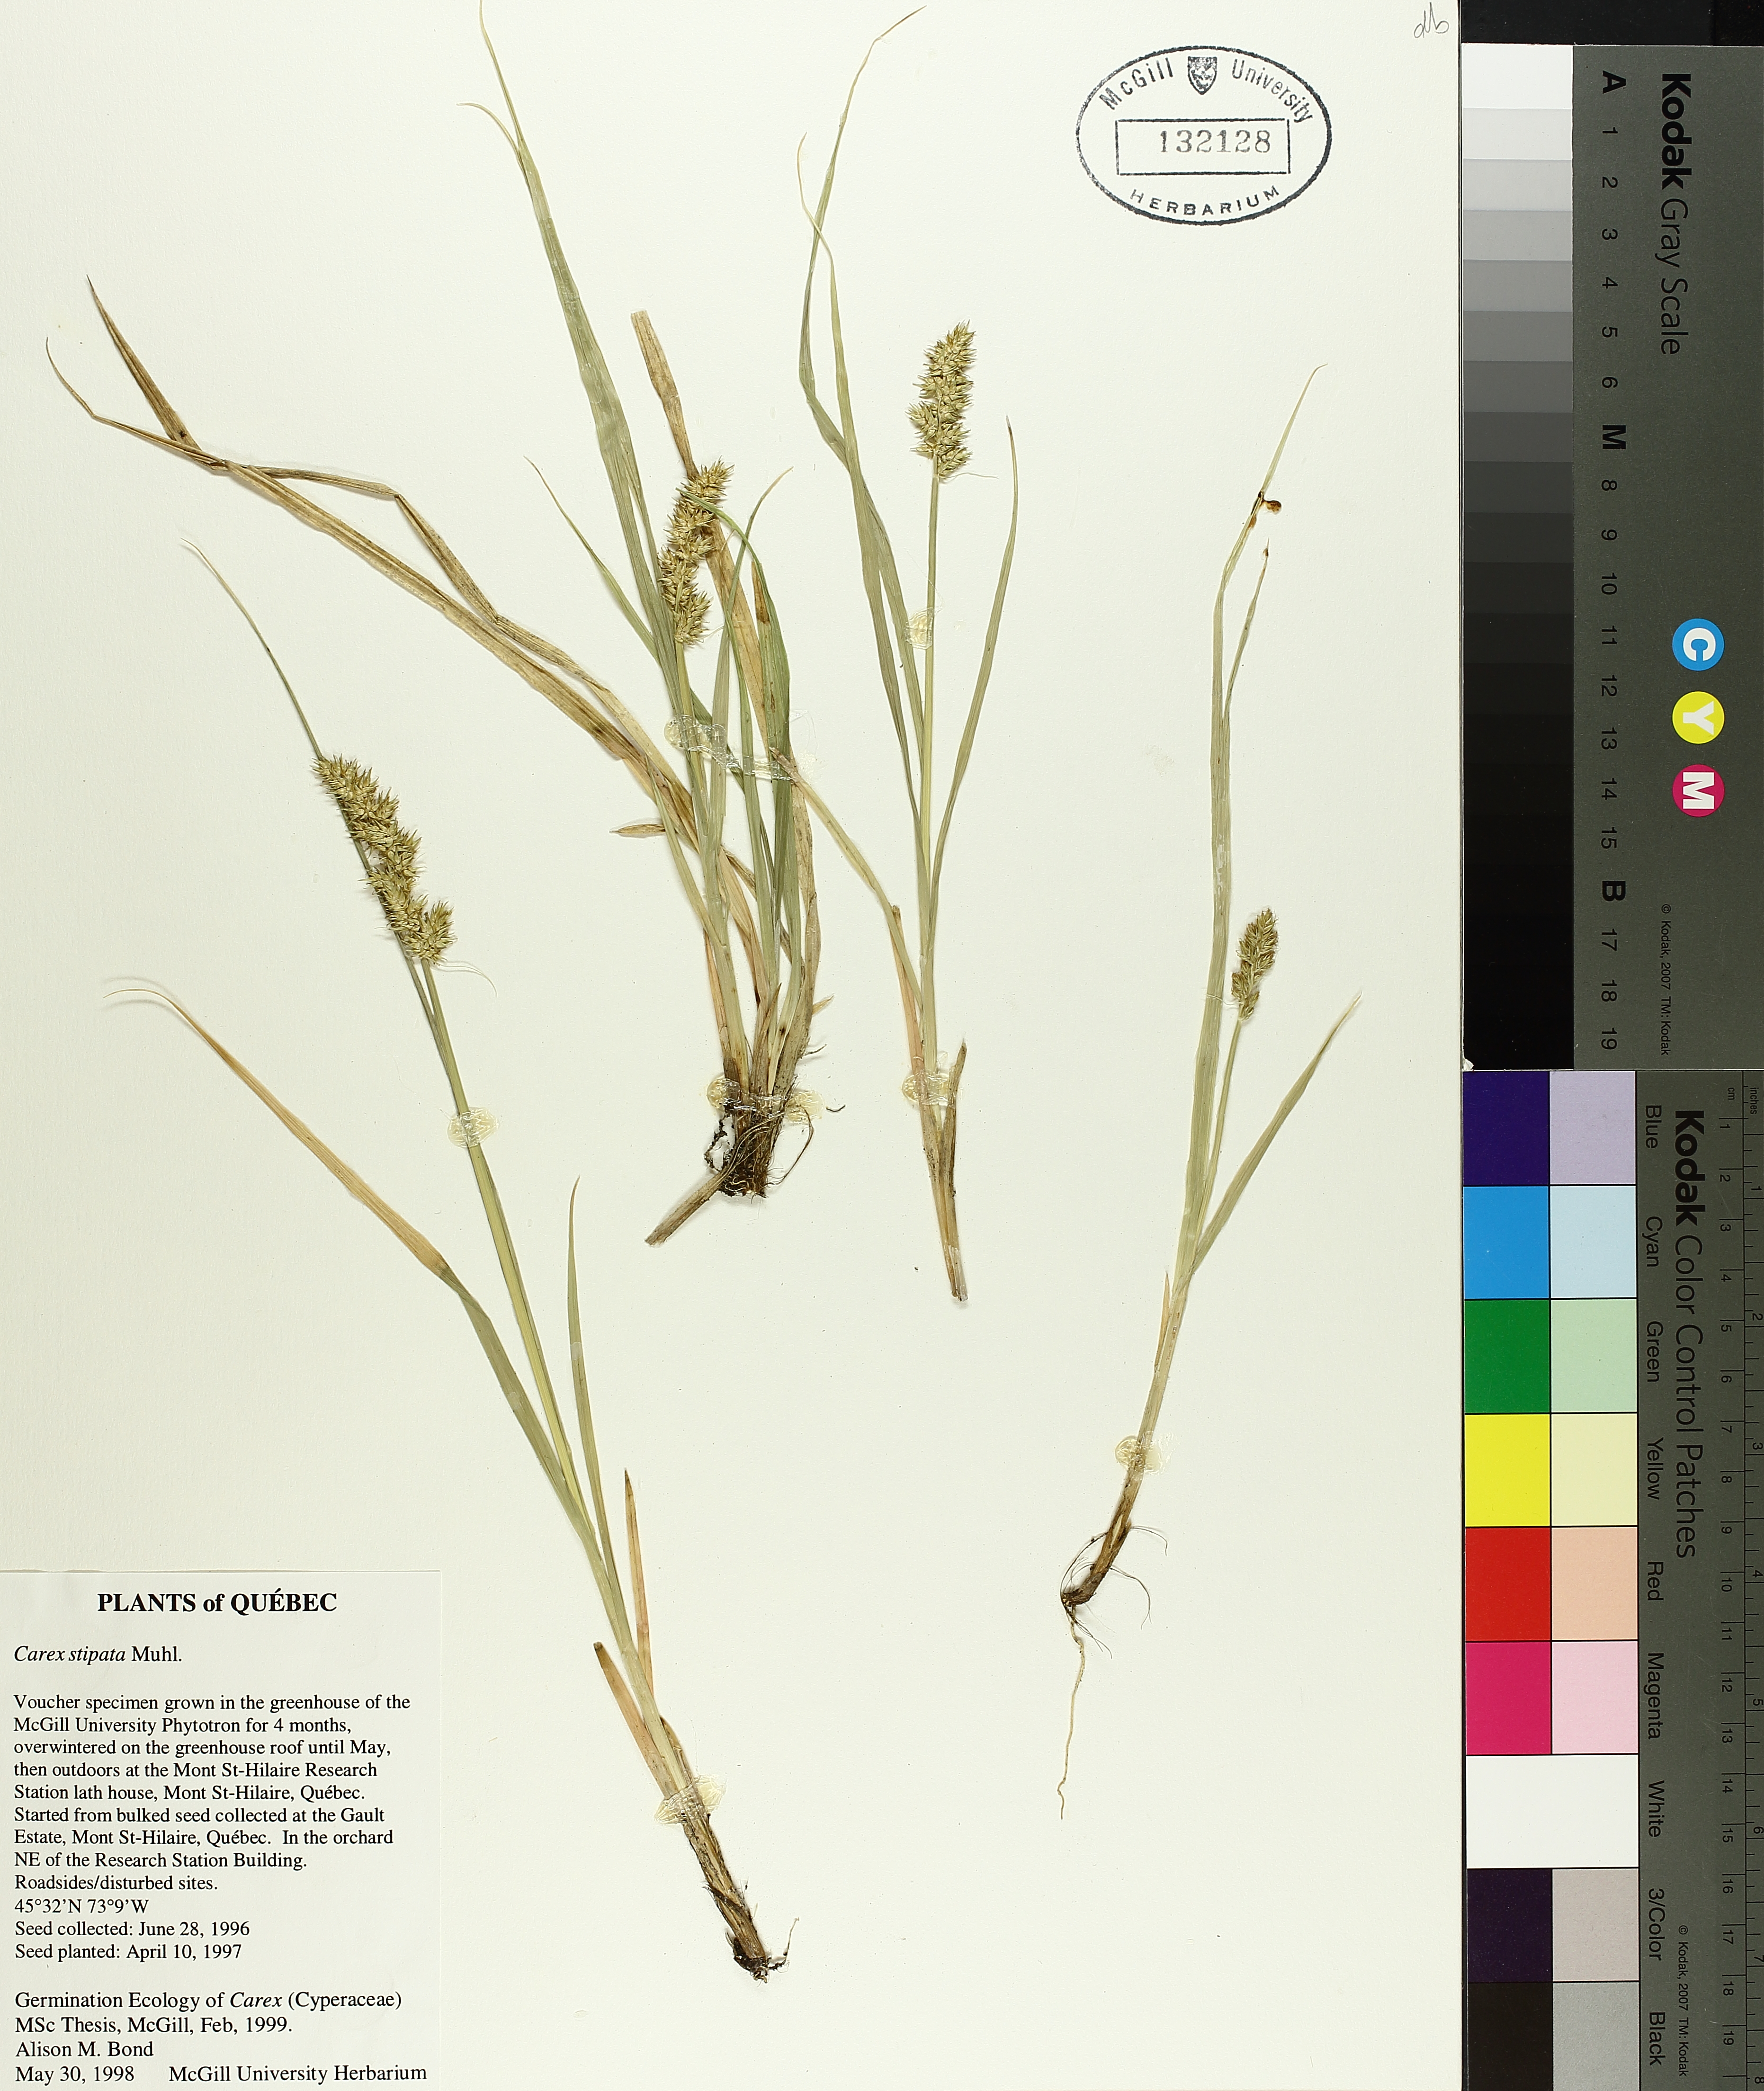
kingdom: Plantae
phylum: Tracheophyta
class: Liliopsida
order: Poales
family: Cyperaceae
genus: Carex
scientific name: Carex stipata
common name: Awl-fruited sedge
